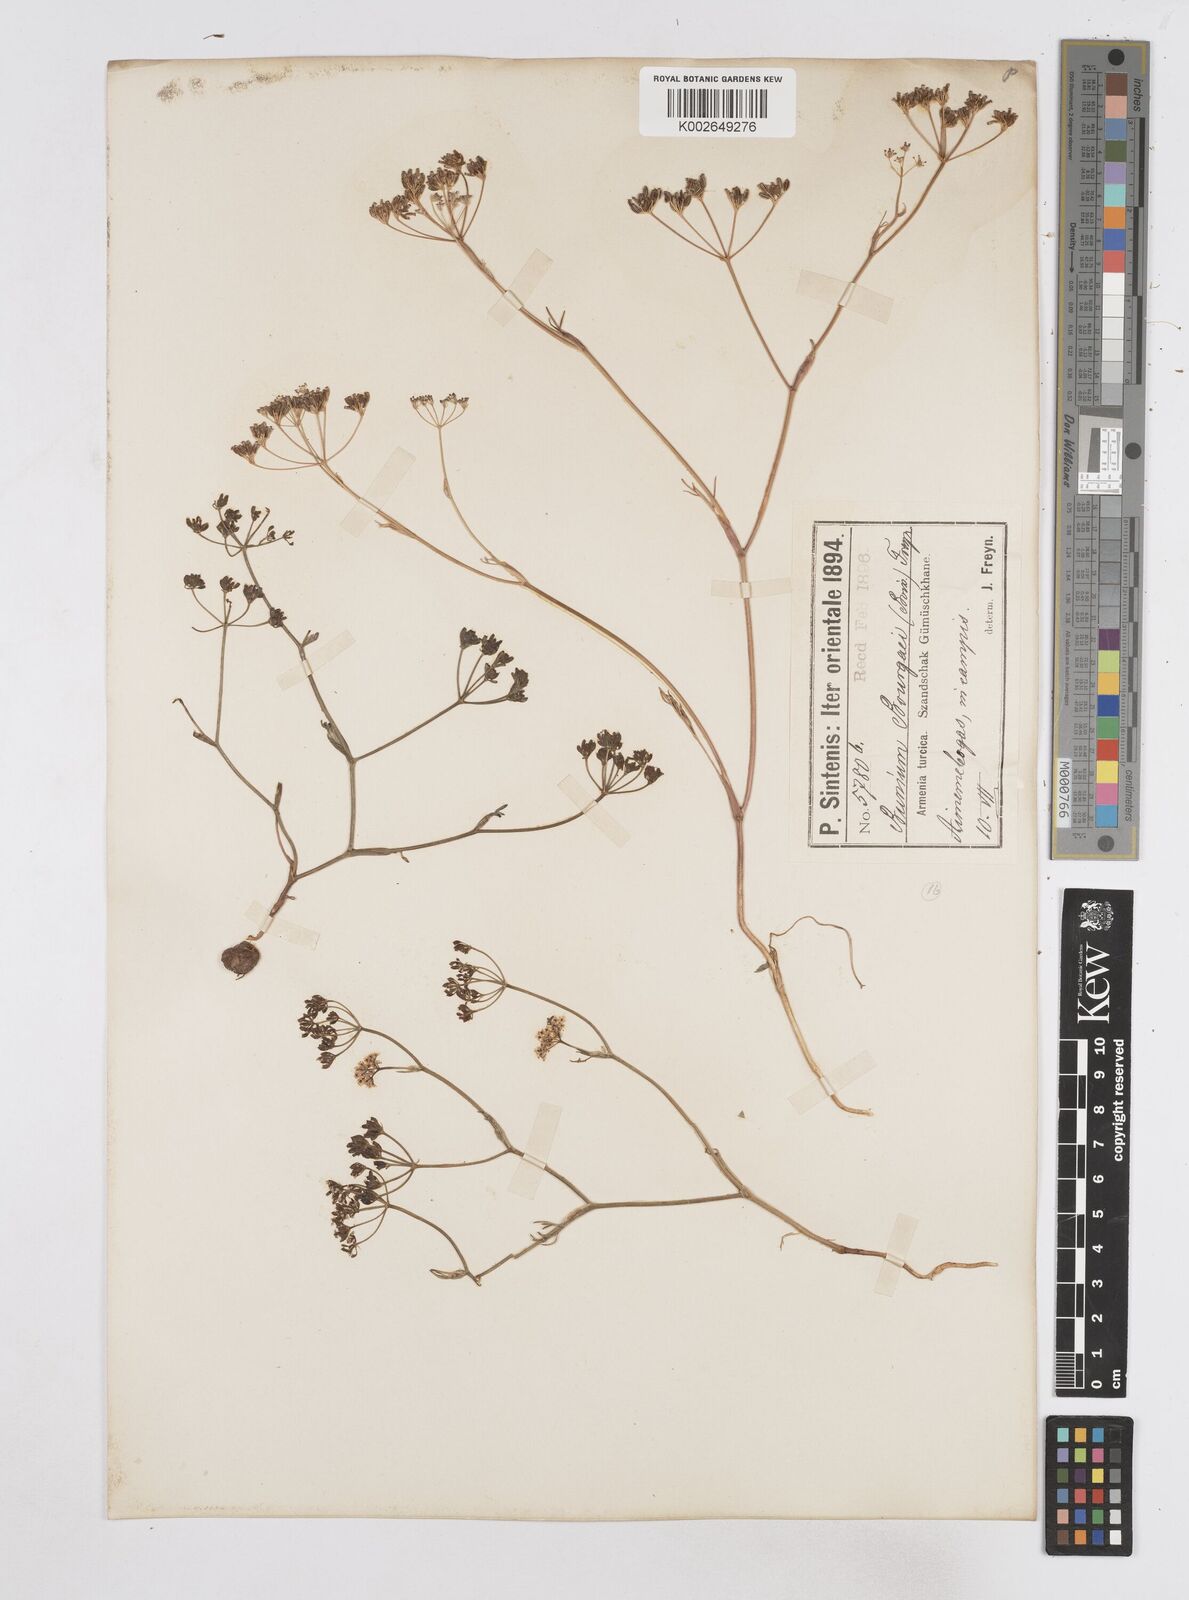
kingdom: Plantae
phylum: Tracheophyta
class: Magnoliopsida
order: Apiales
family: Apiaceae
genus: Bunium
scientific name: Bunium bourgaei
